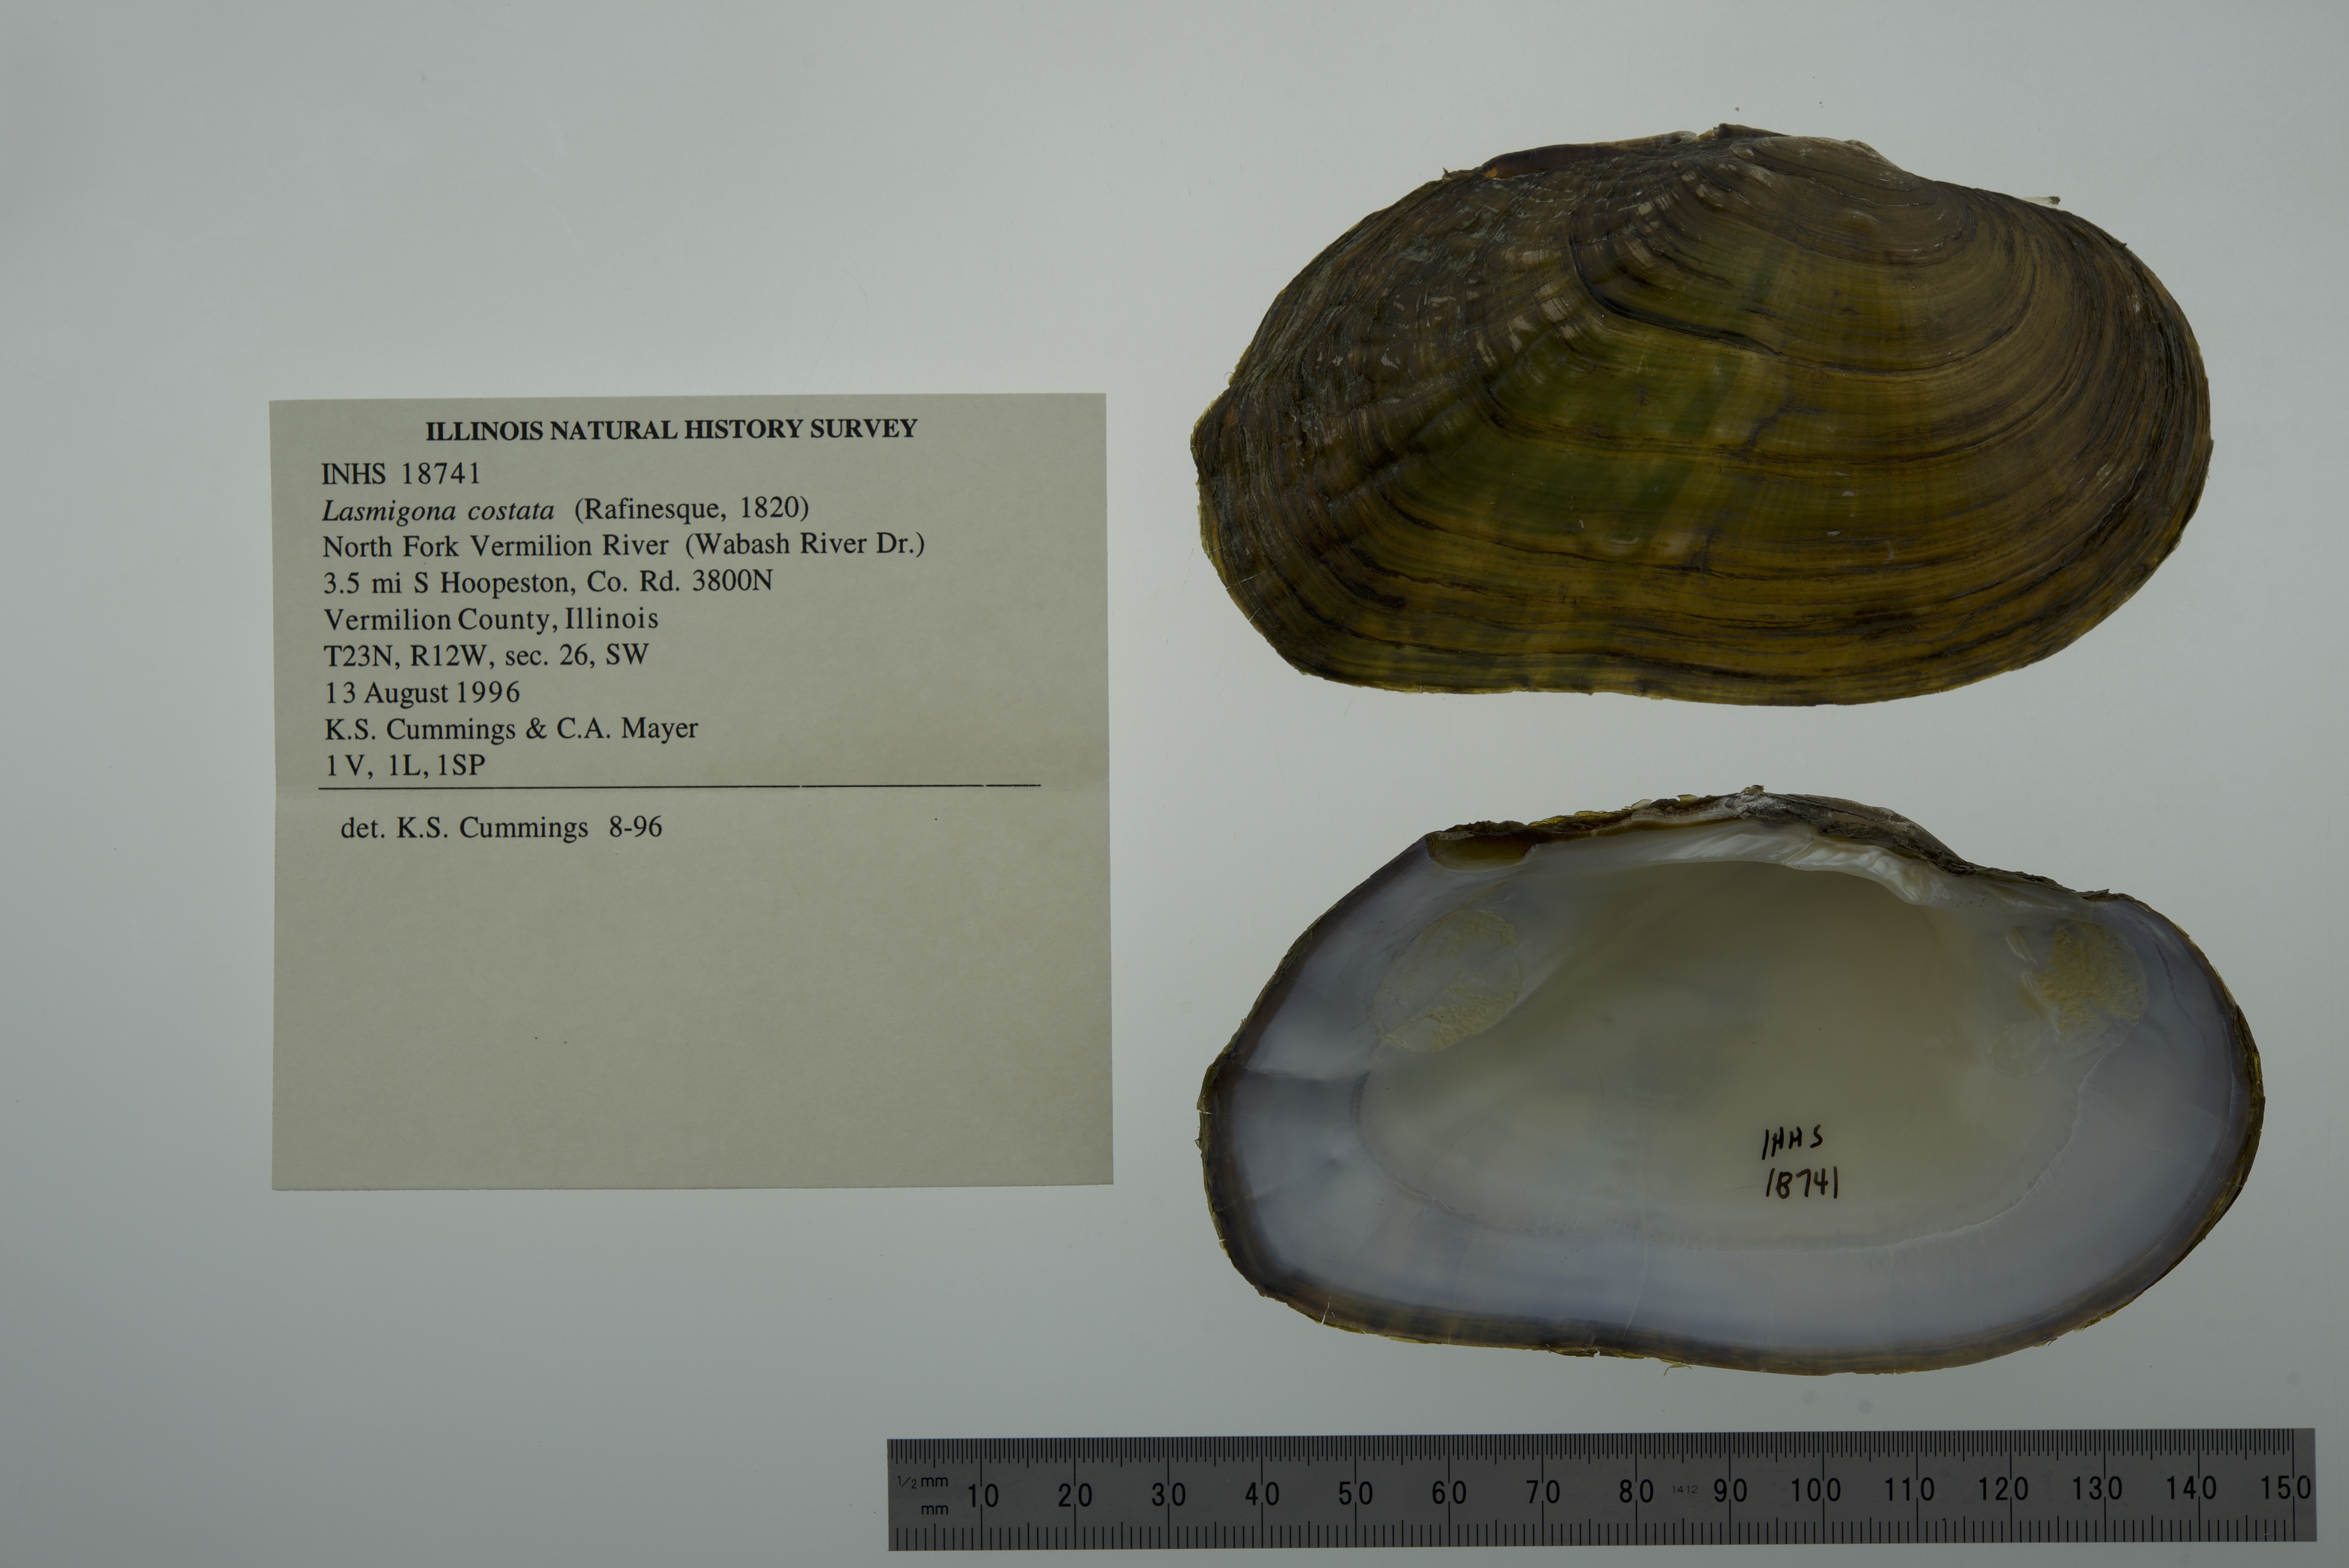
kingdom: Animalia
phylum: Mollusca
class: Bivalvia
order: Unionida
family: Unionidae
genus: Lasmigona
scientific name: Lasmigona costata
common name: Flutedshell
